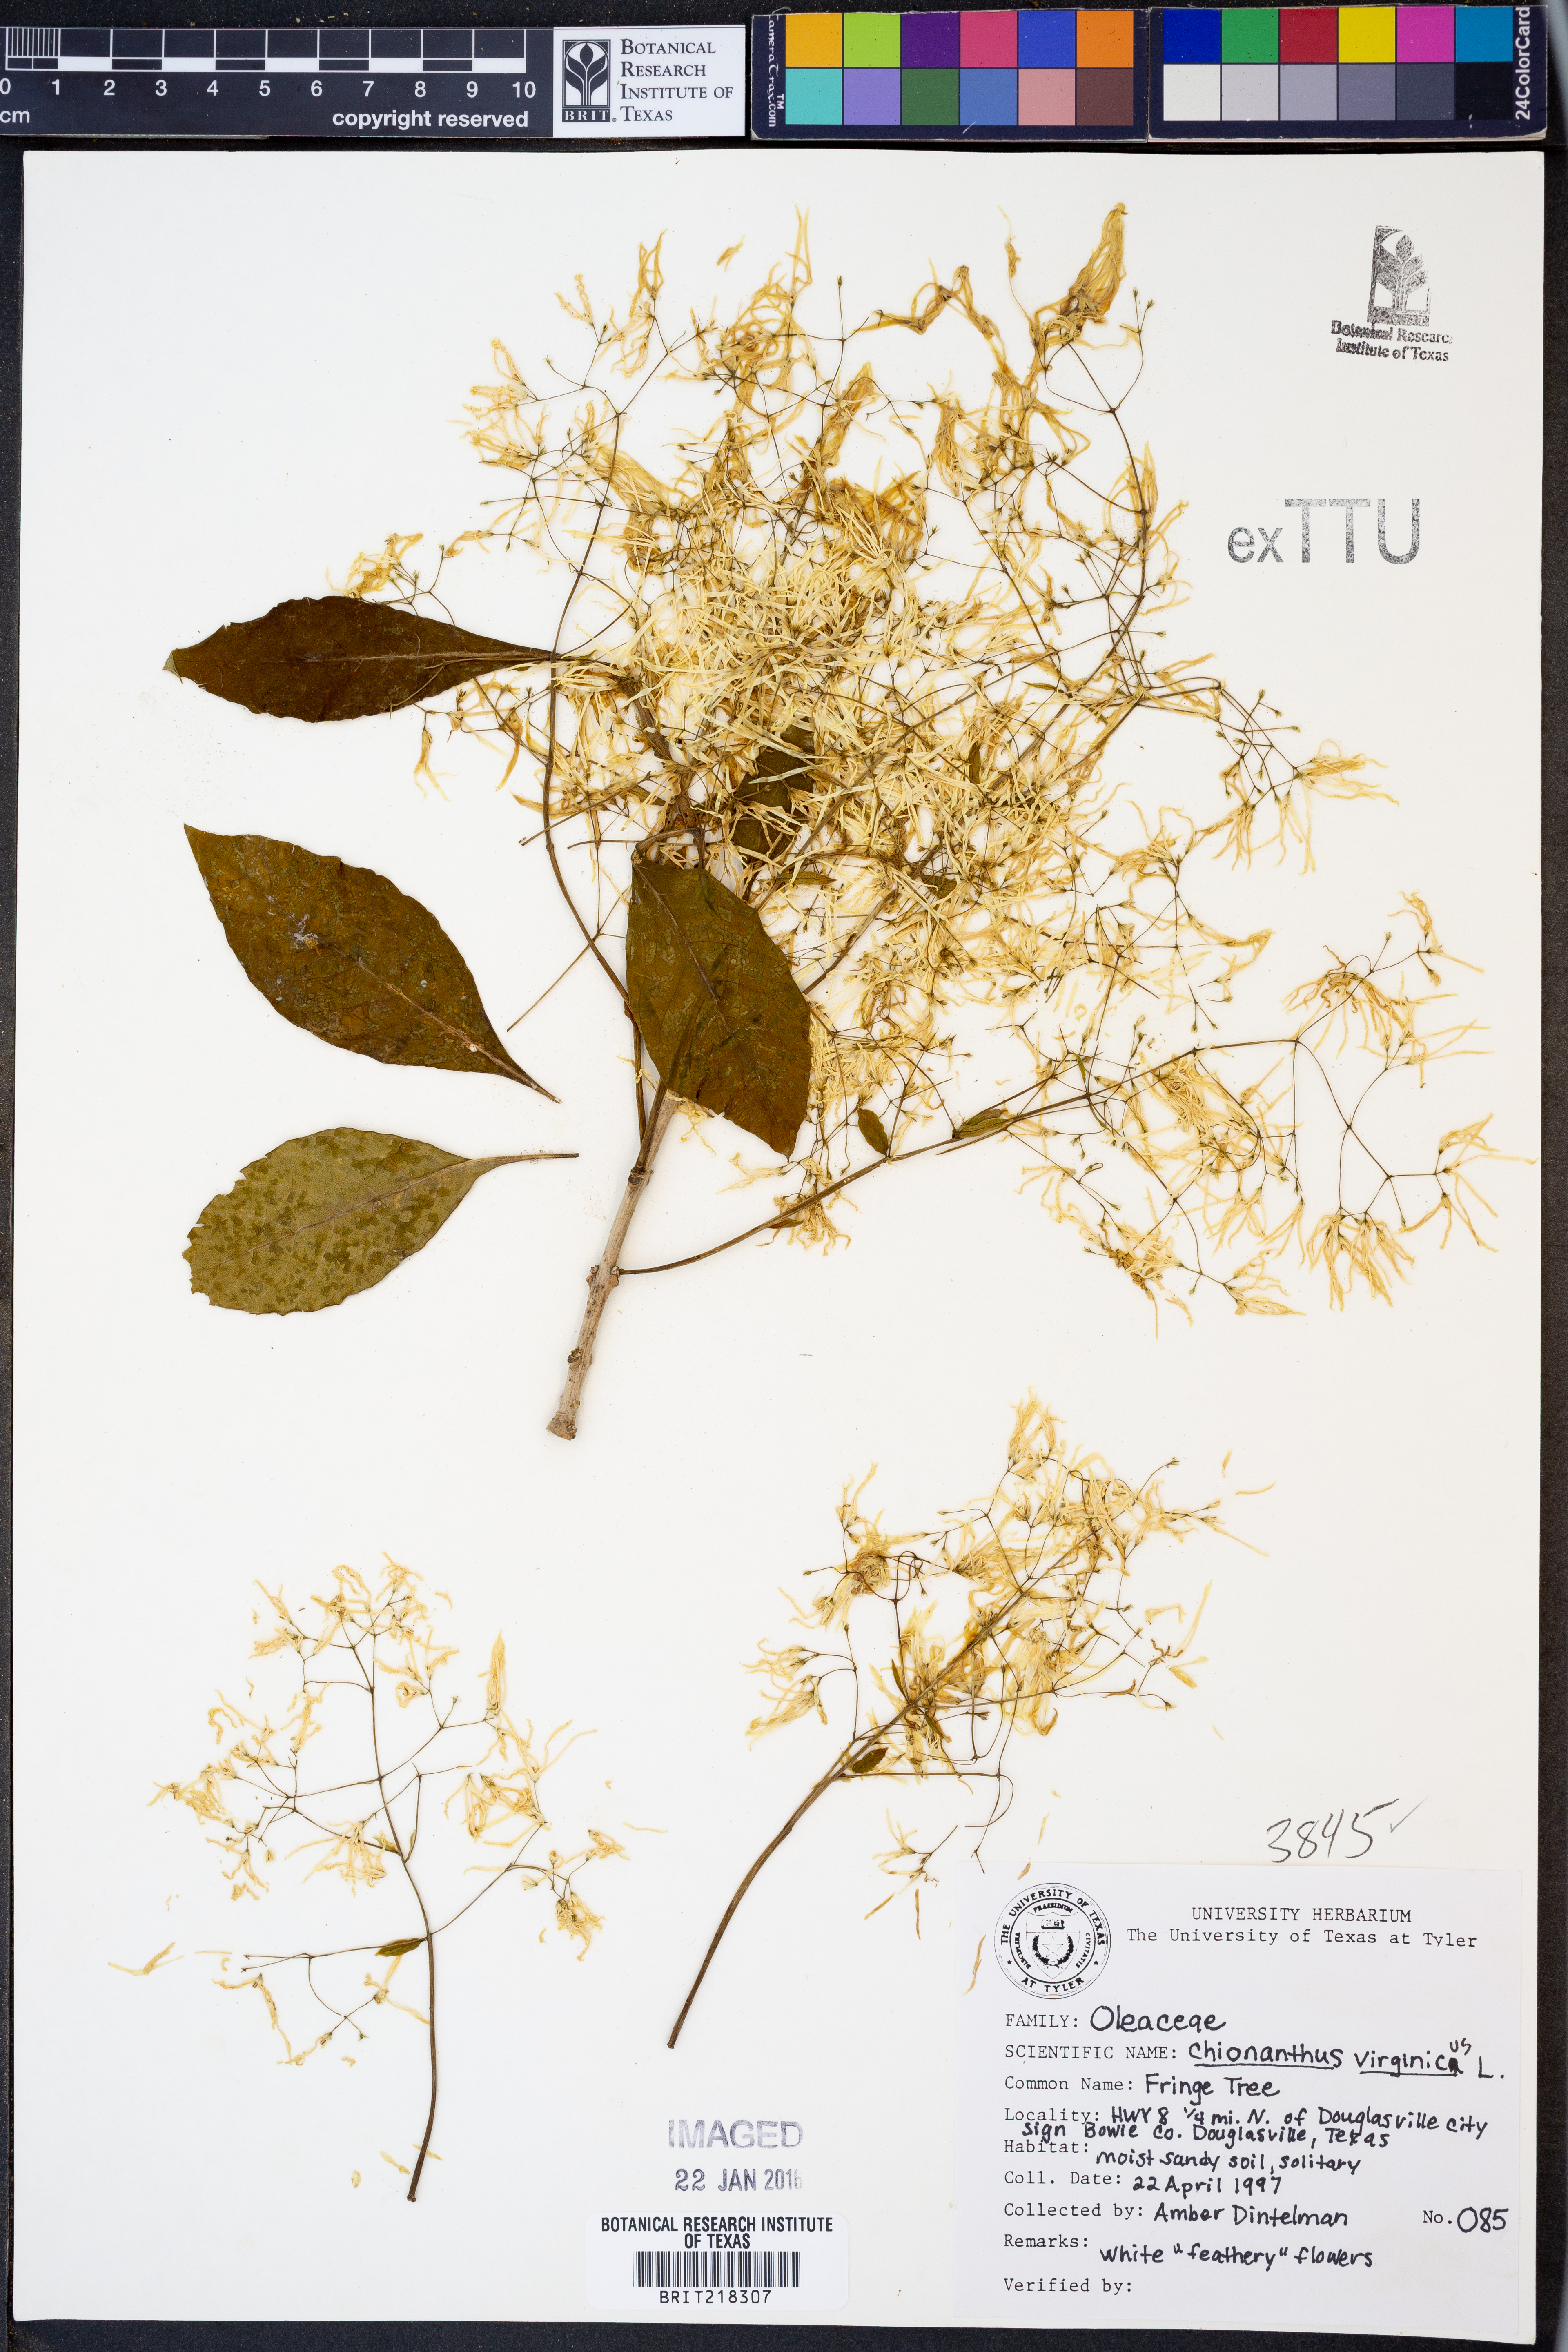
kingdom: Plantae
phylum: Tracheophyta
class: Magnoliopsida
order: Lamiales
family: Oleaceae
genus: Chionanthus
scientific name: Chionanthus virginicus
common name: American fringetree
